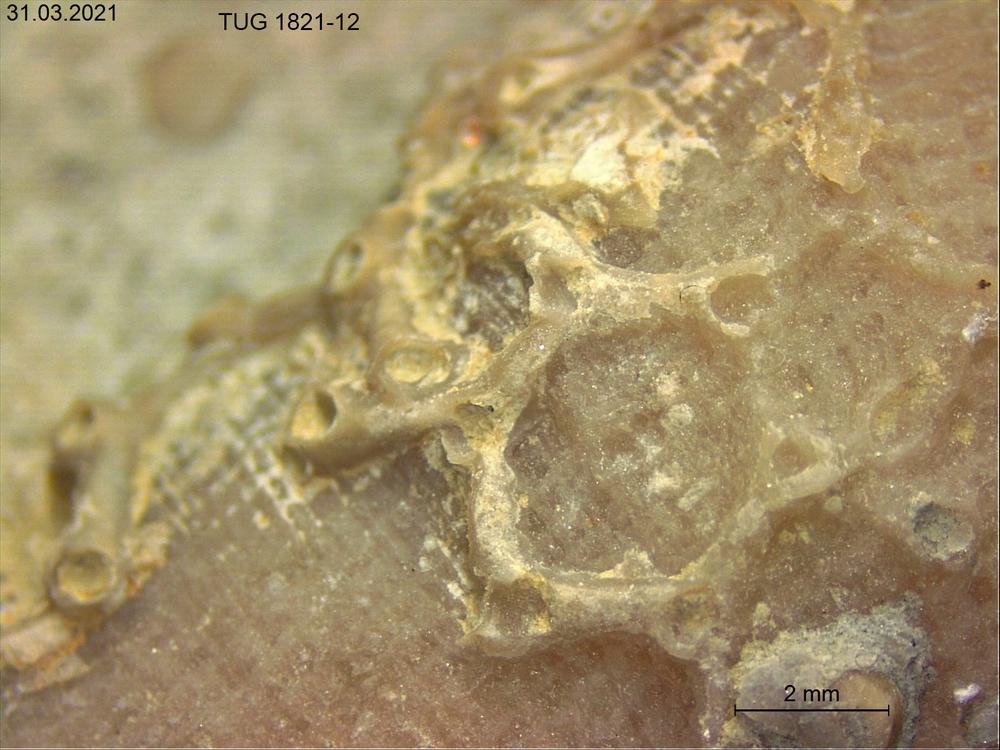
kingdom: Animalia
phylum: Cnidaria
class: Anthozoa
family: Auloporidae
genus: Aulopora
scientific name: Aulopora
